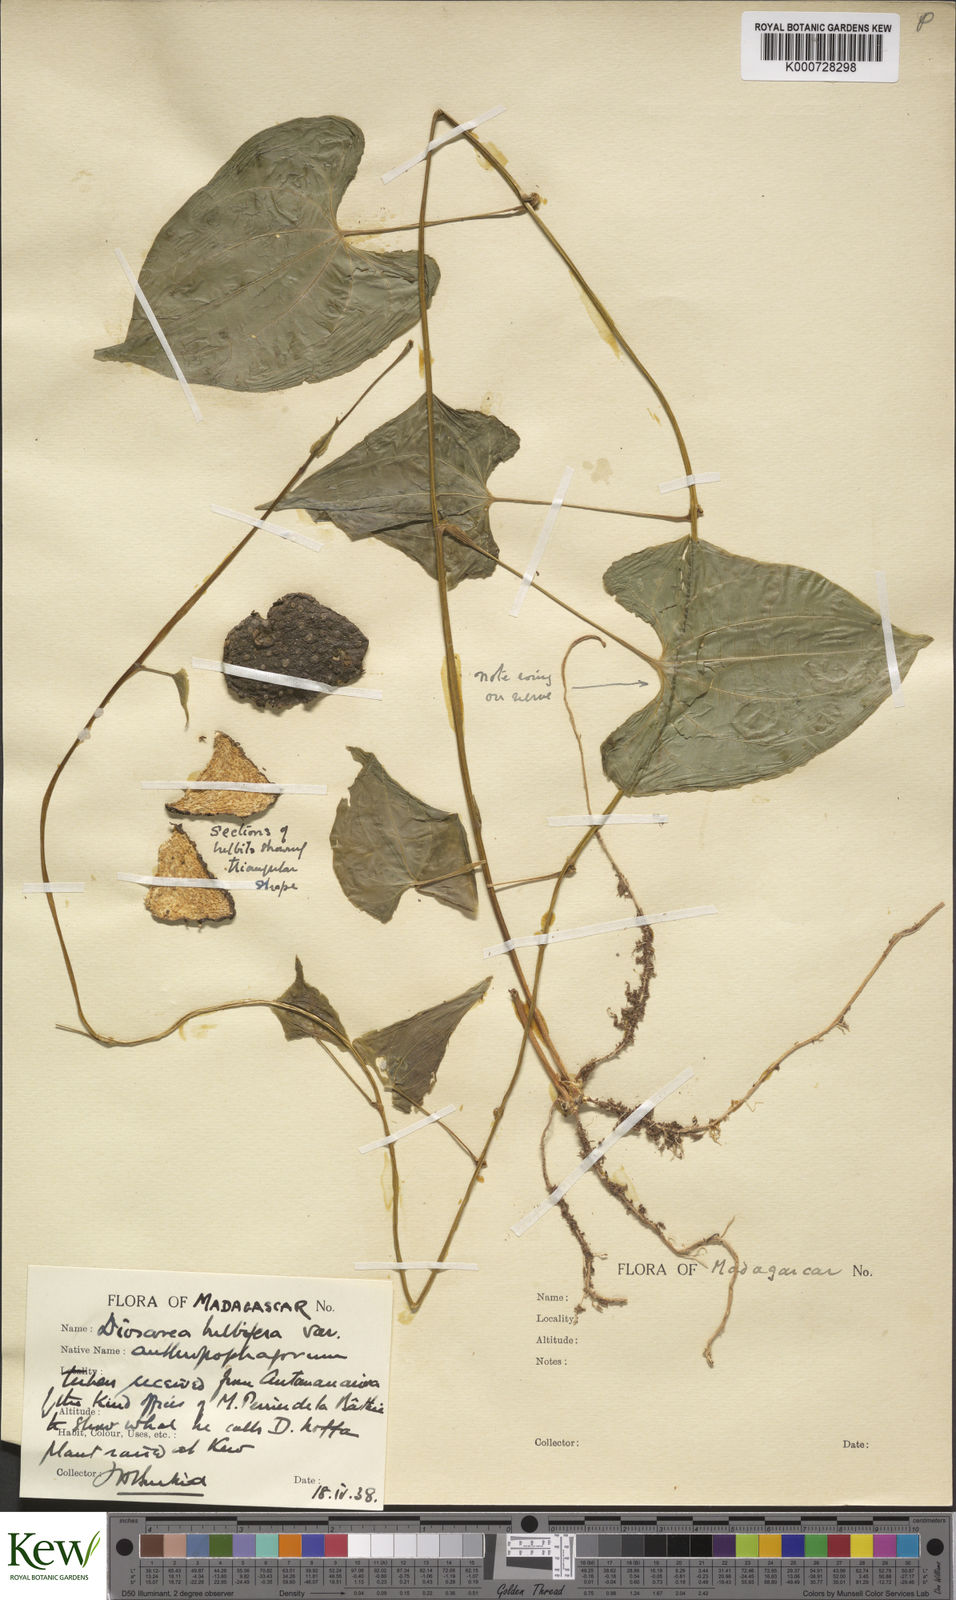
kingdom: Plantae
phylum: Tracheophyta
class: Liliopsida
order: Dioscoreales
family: Dioscoreaceae
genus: Dioscorea
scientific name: Dioscorea bulbifera
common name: Air yam
